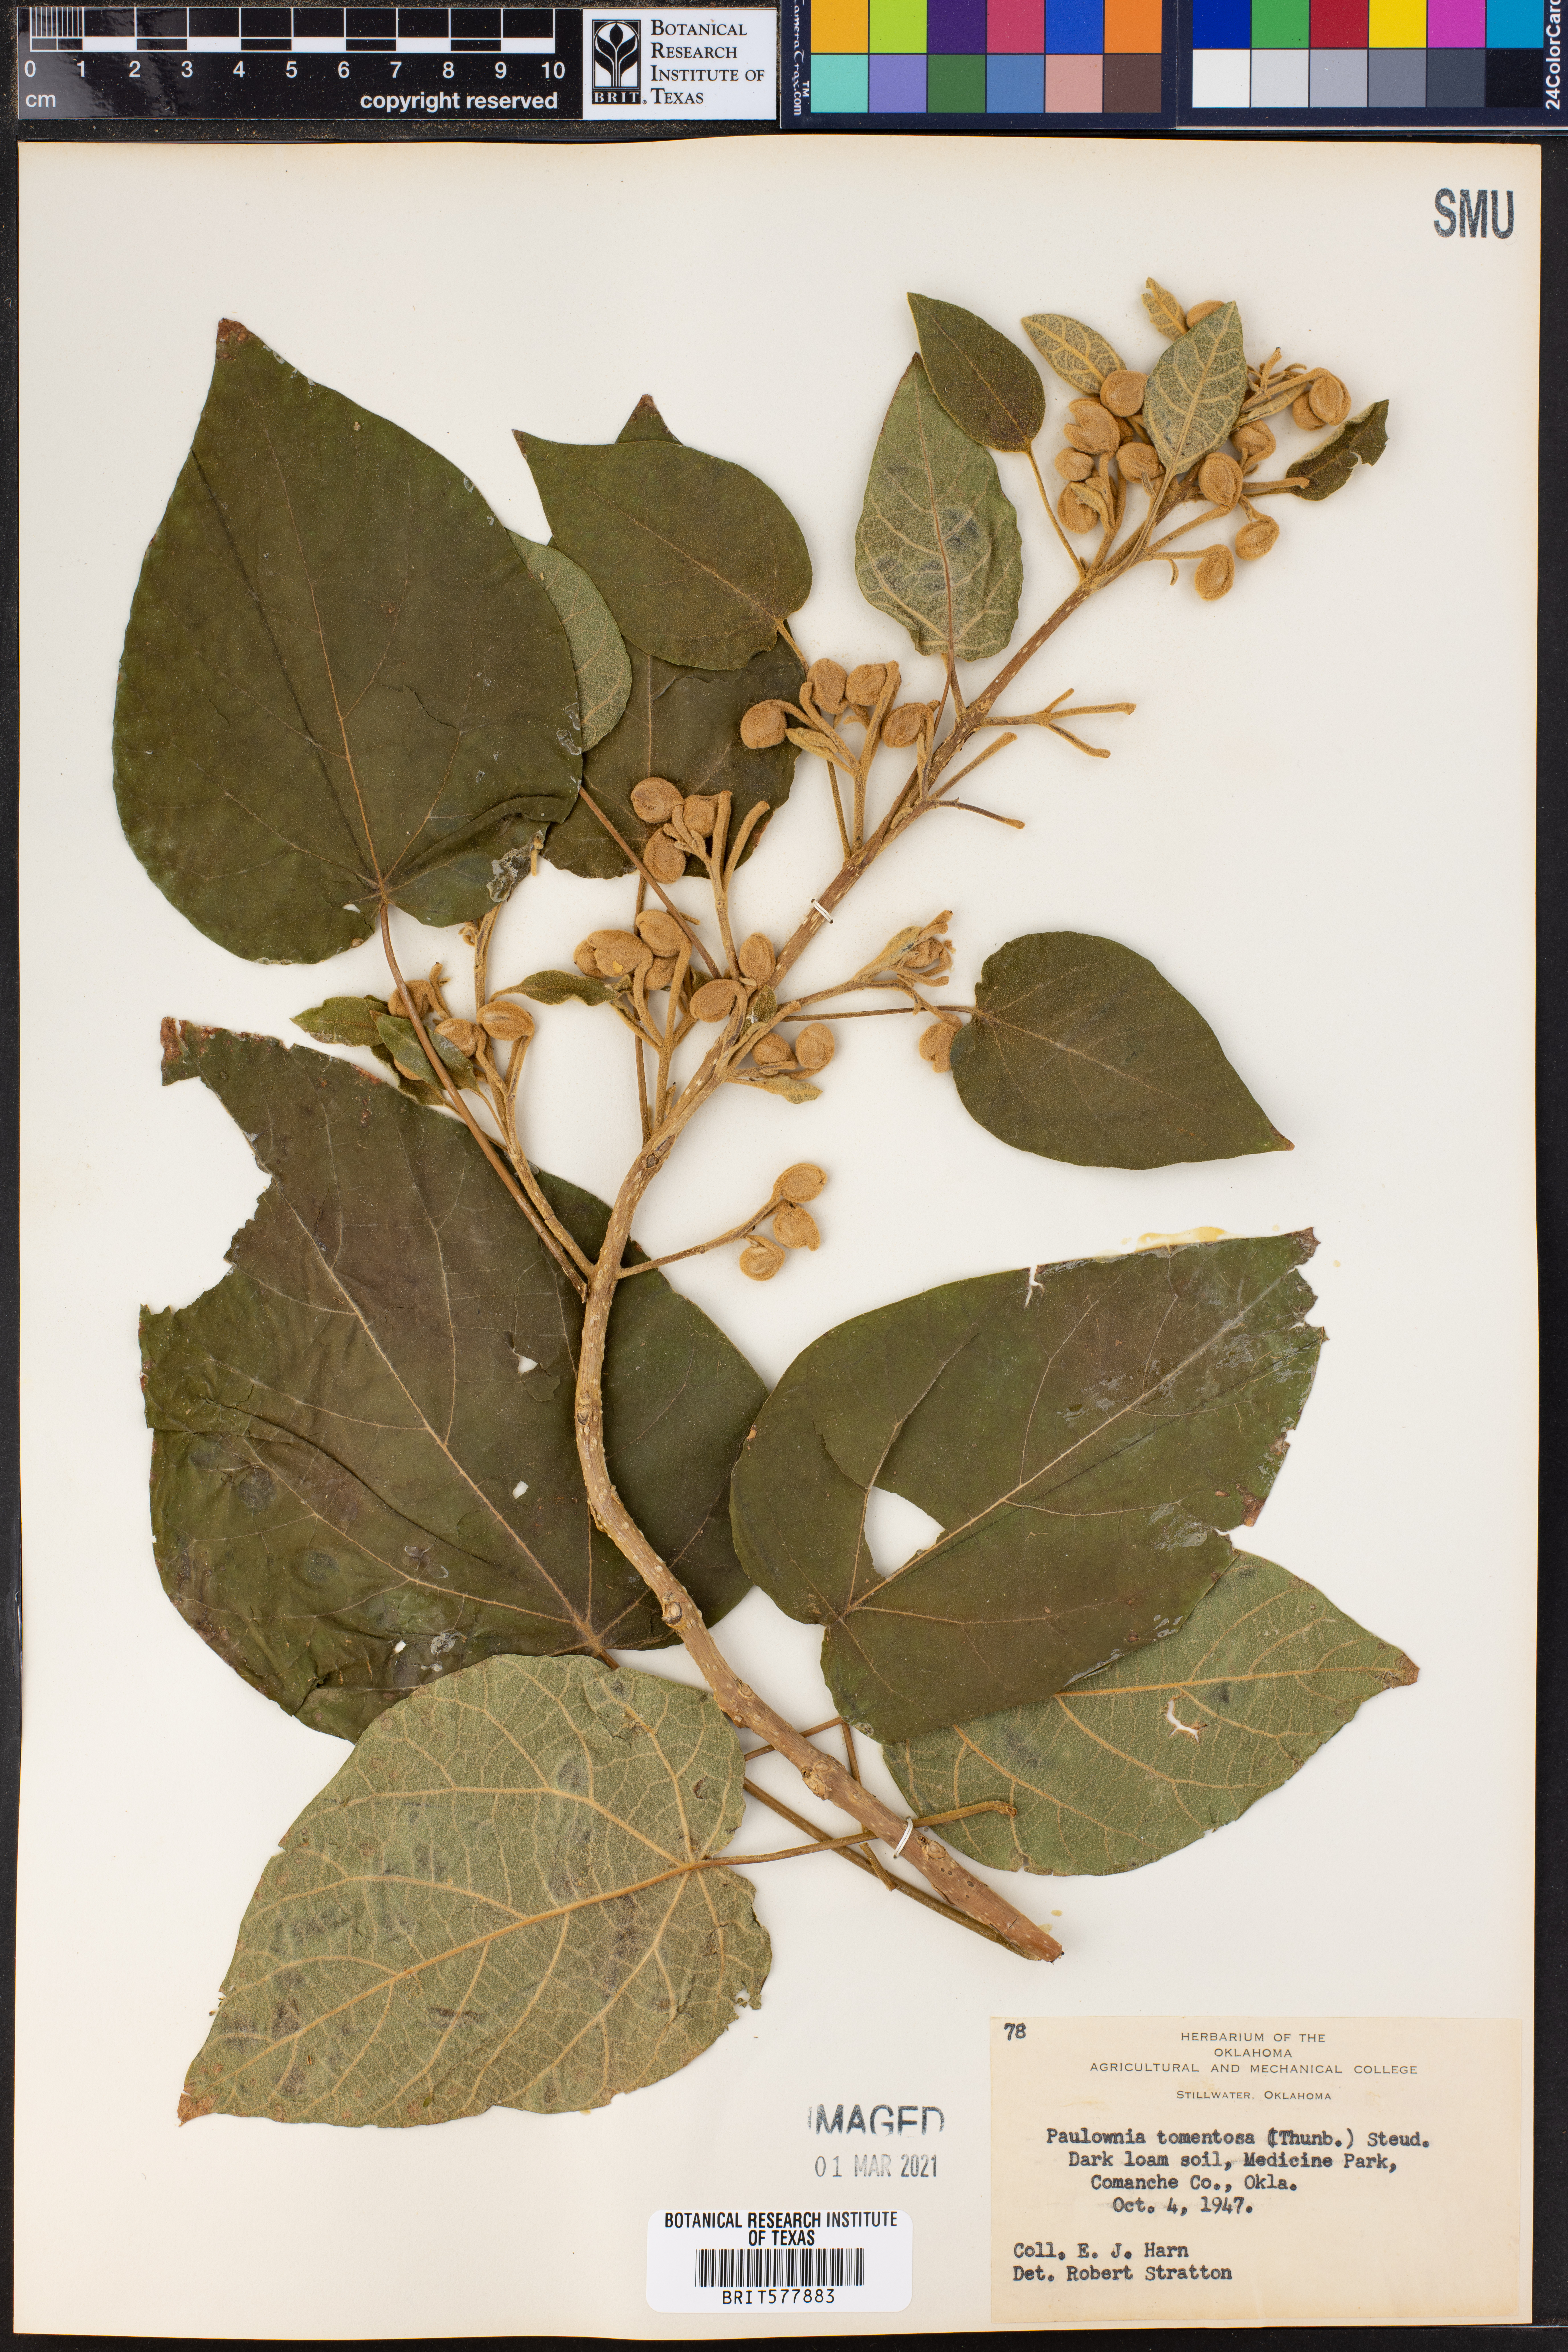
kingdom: Plantae
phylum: Tracheophyta
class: Magnoliopsida
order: Lamiales
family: Paulowniaceae
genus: Paulownia
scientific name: Paulownia tomentosa
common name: Foxglove-tree
